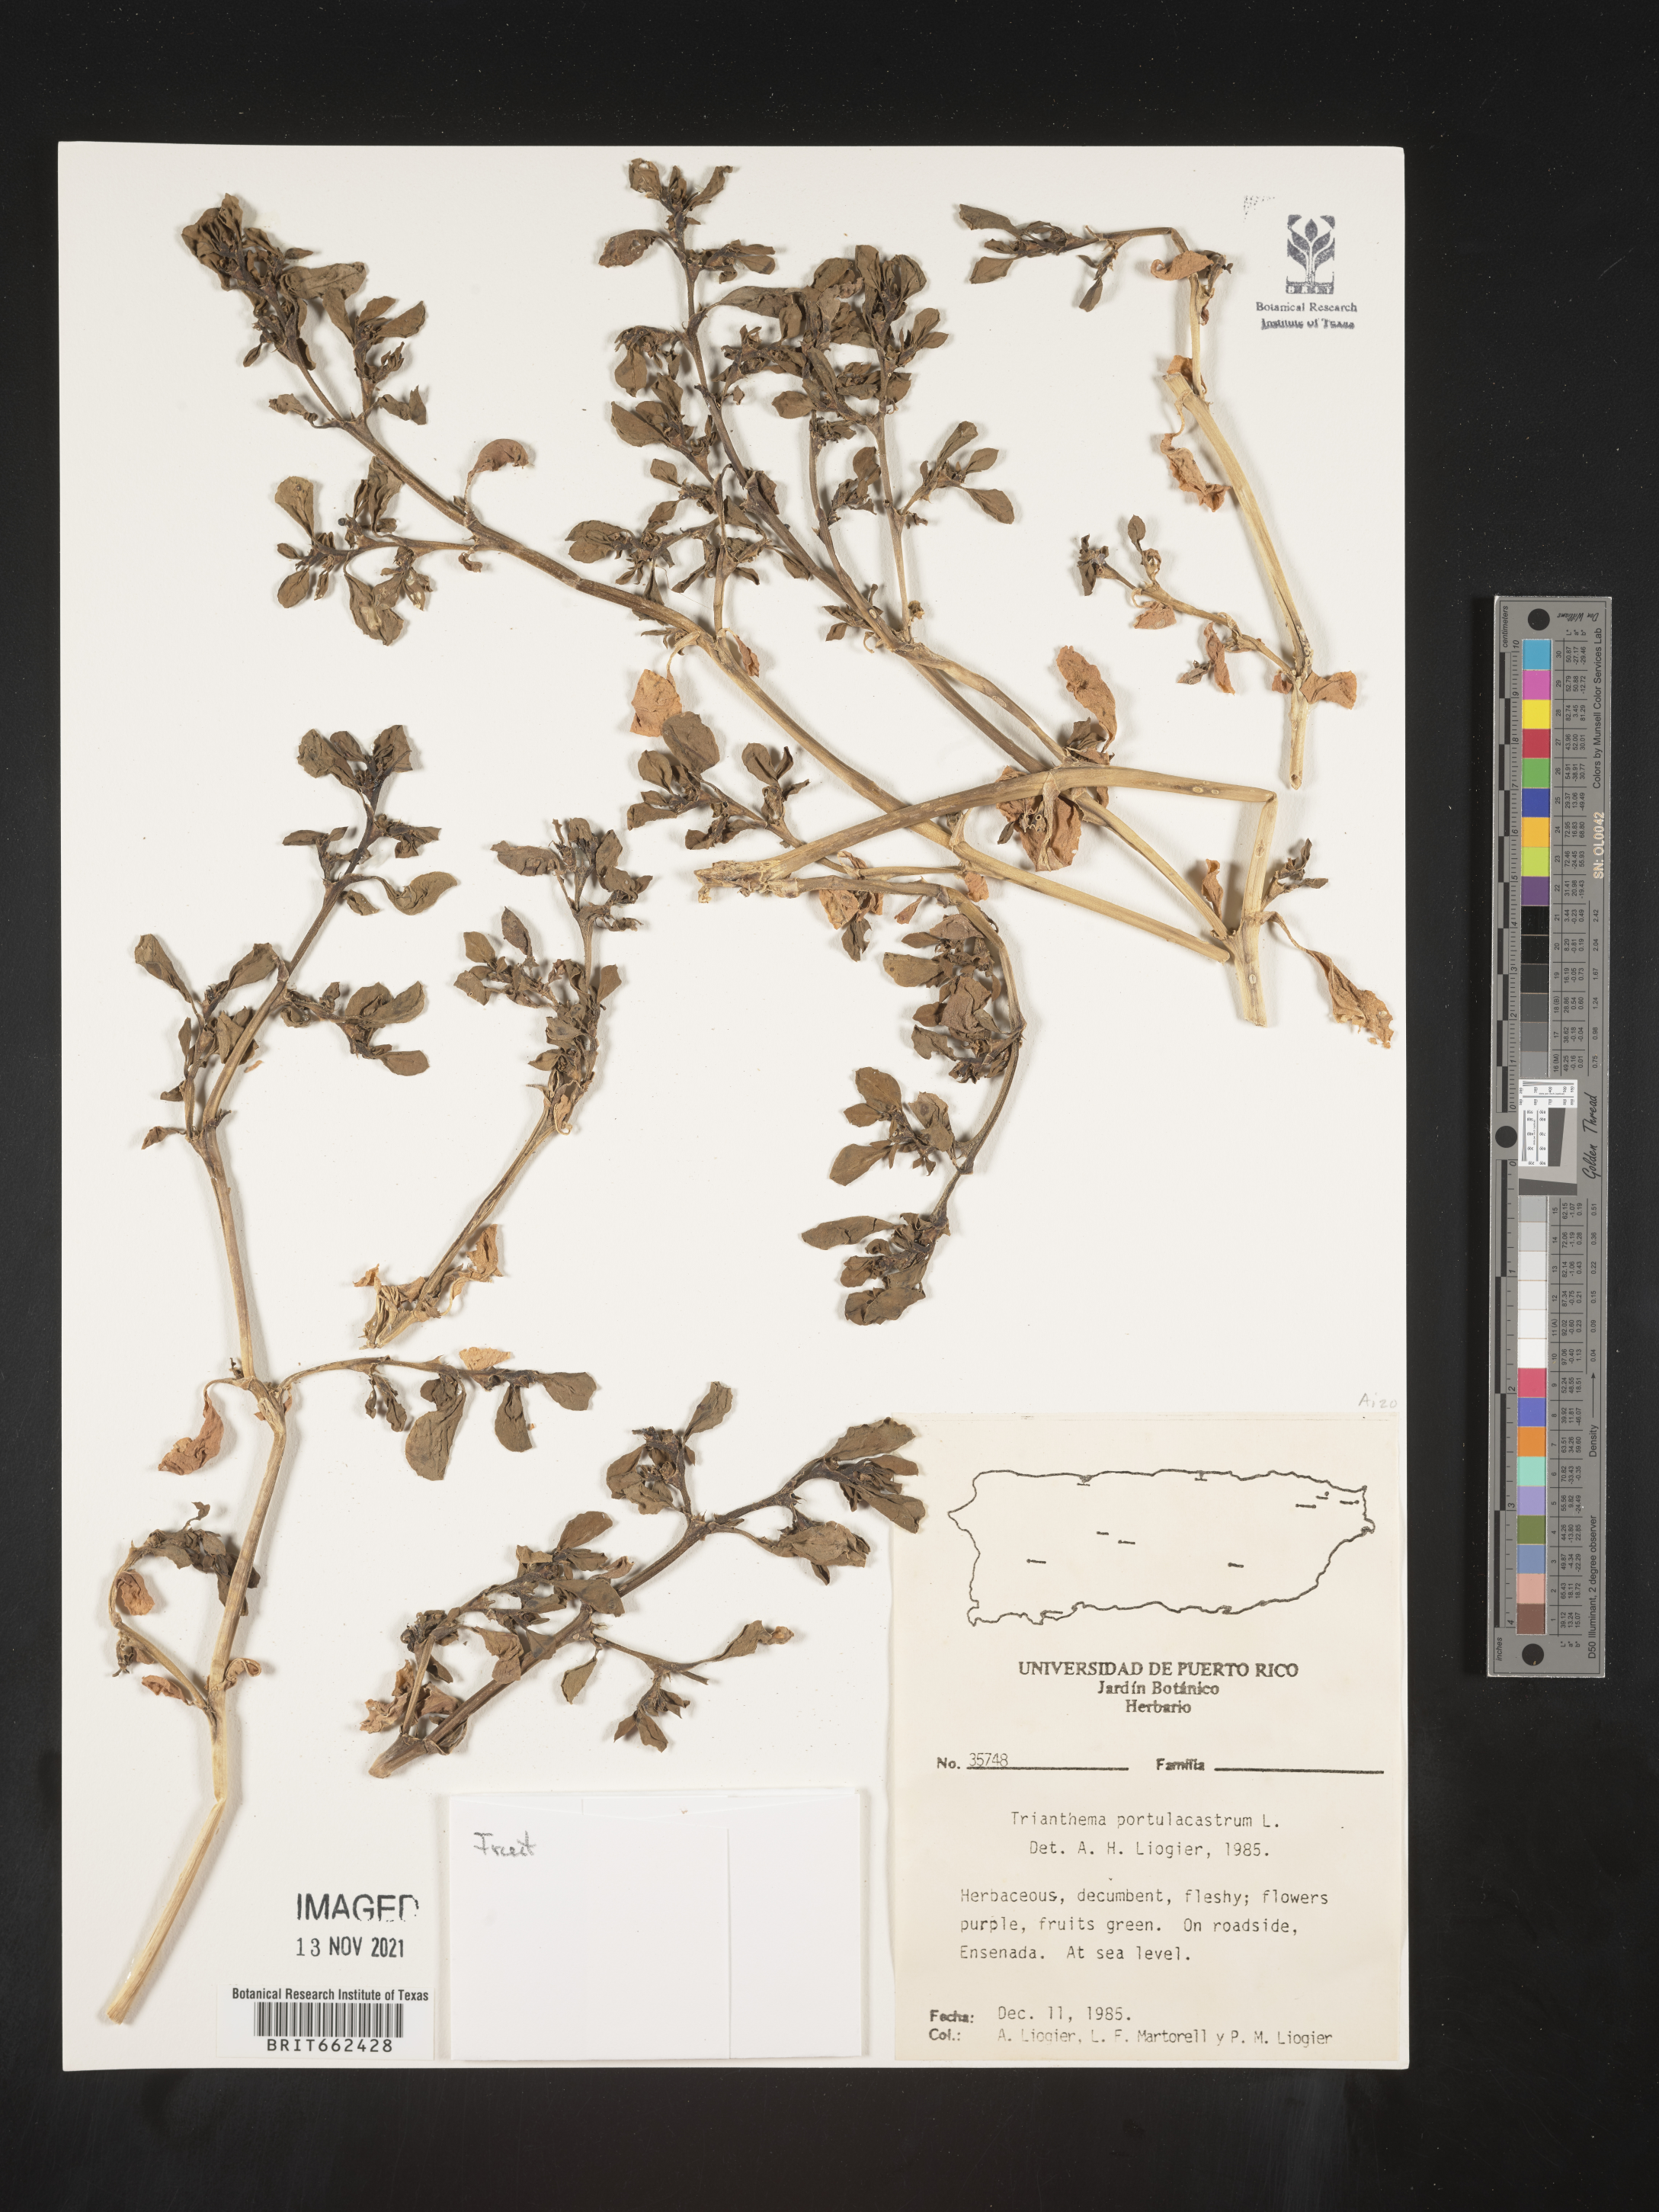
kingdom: Plantae
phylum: Tracheophyta
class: Magnoliopsida
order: Caryophyllales
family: Aizoaceae
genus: Trianthema
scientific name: Trianthema
